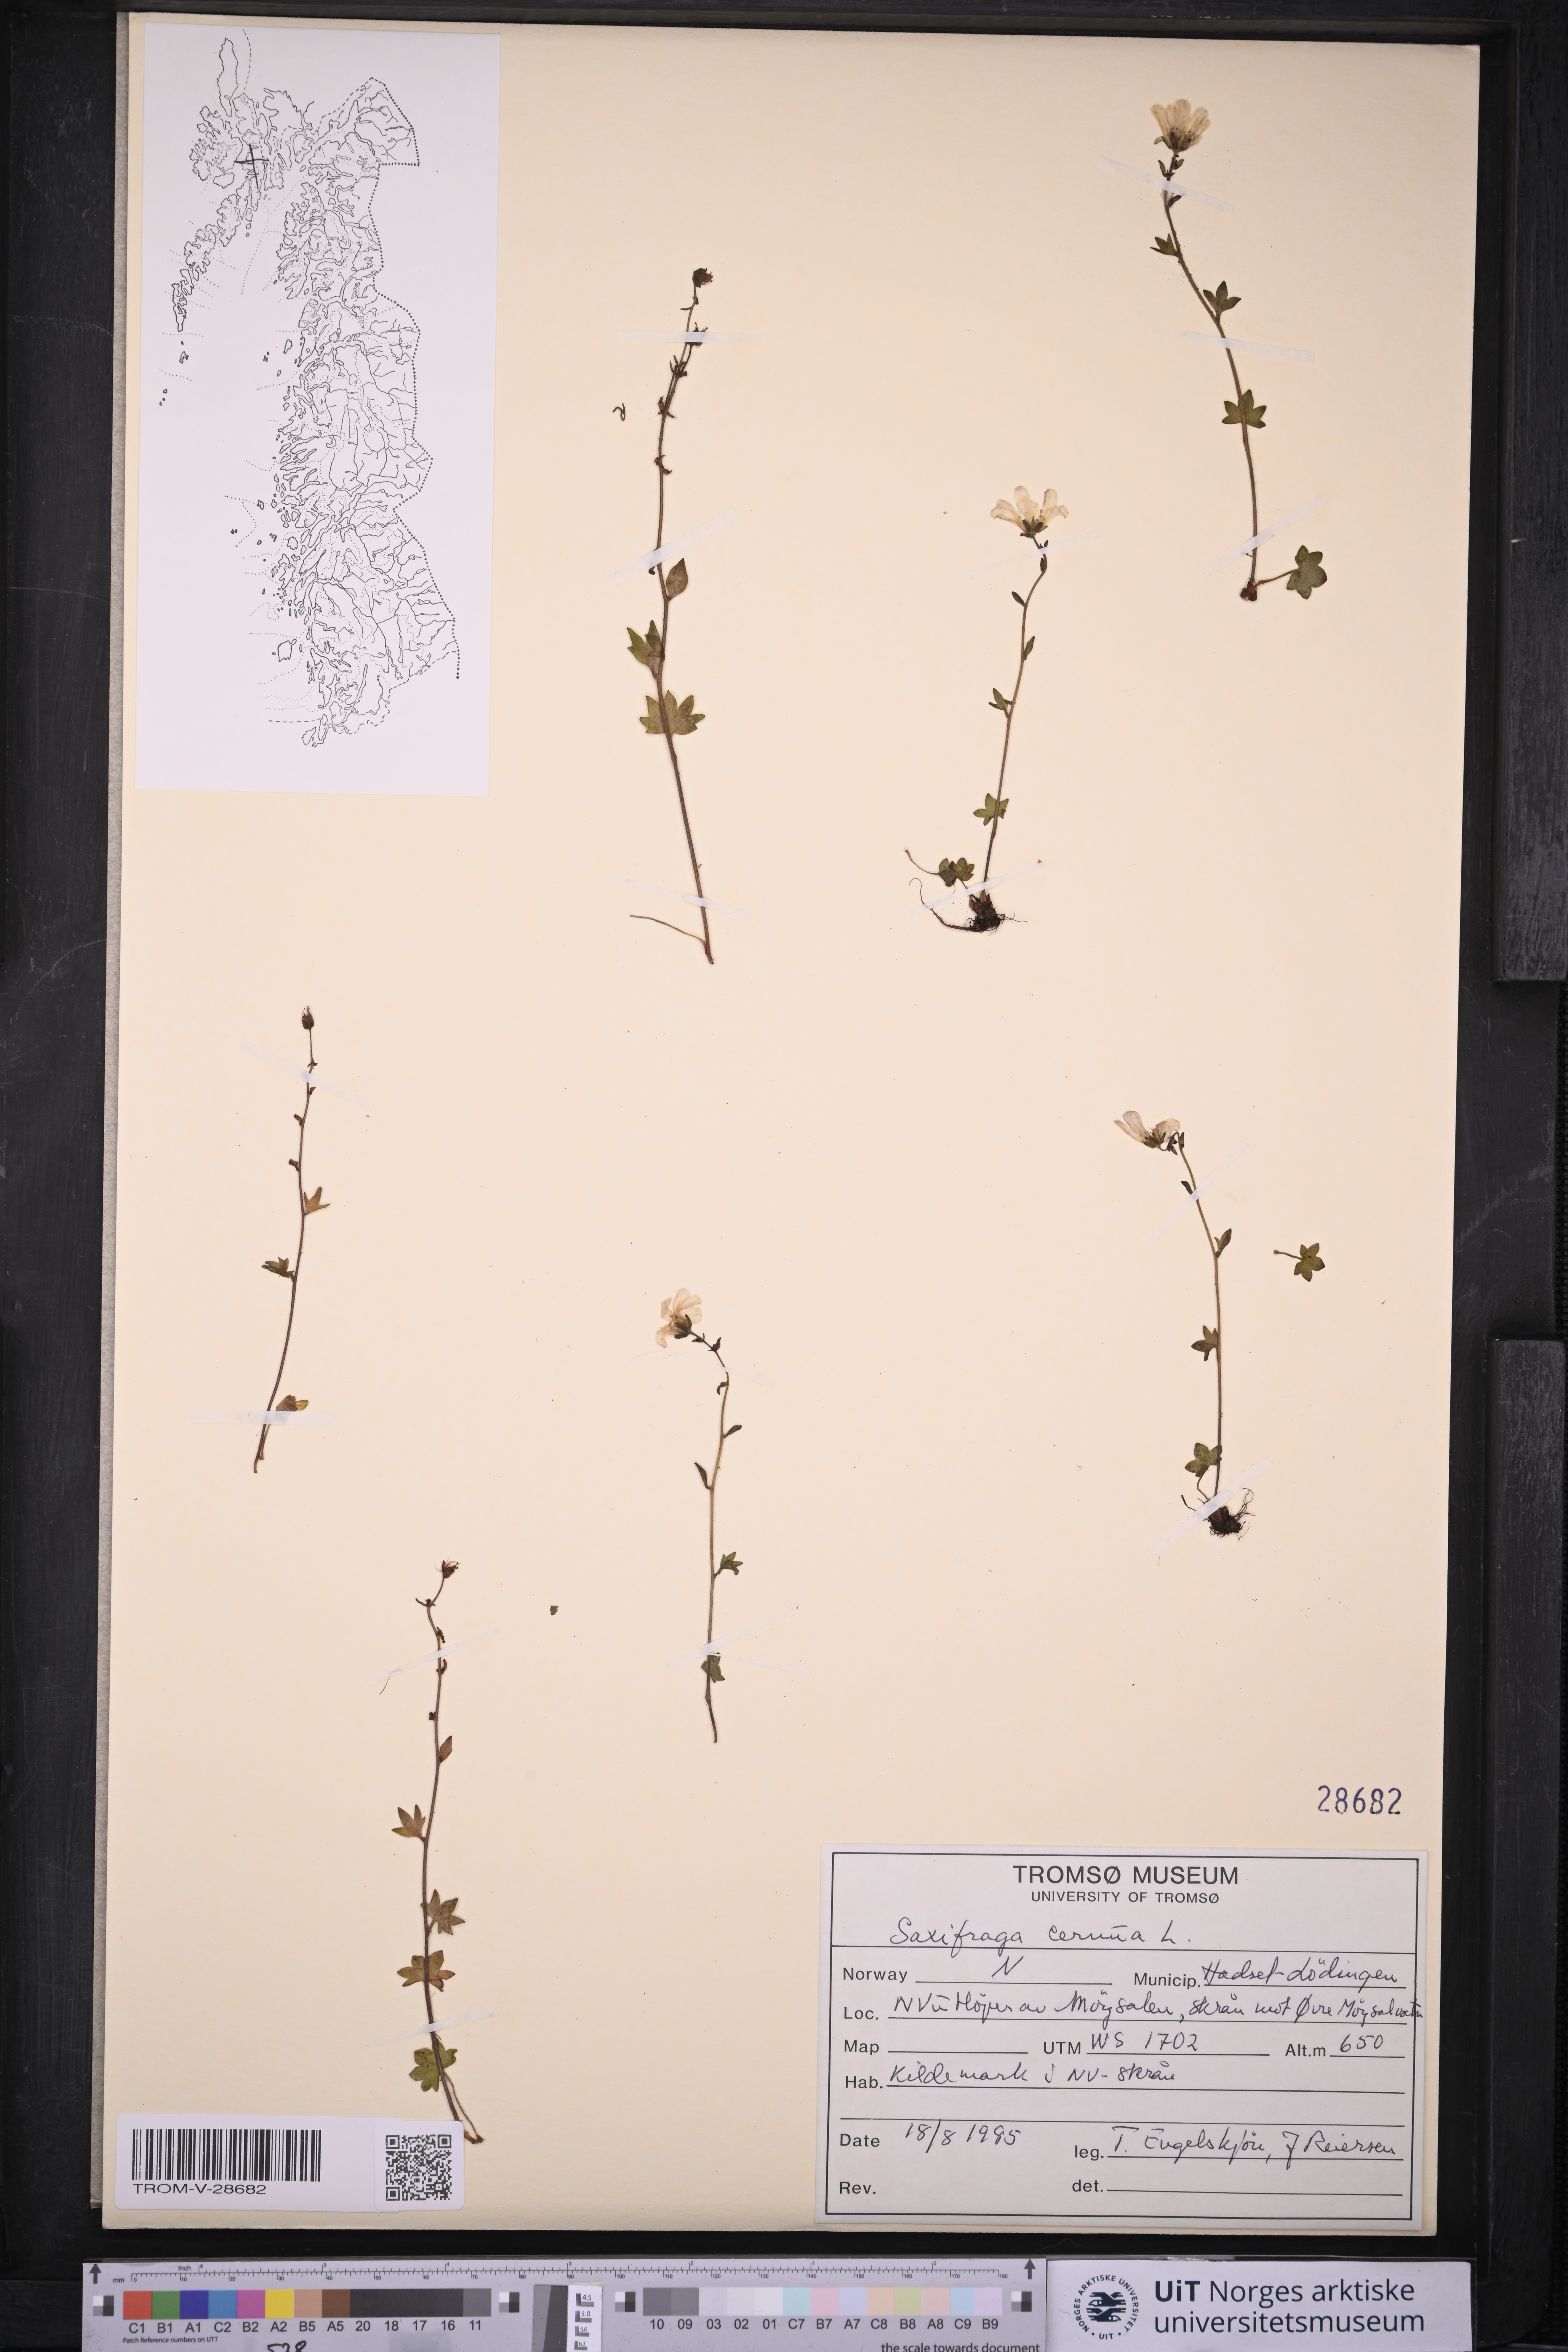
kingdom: Plantae
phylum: Tracheophyta
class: Magnoliopsida
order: Saxifragales
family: Saxifragaceae
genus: Saxifraga
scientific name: Saxifraga cernua
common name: Drooping saxifrage
